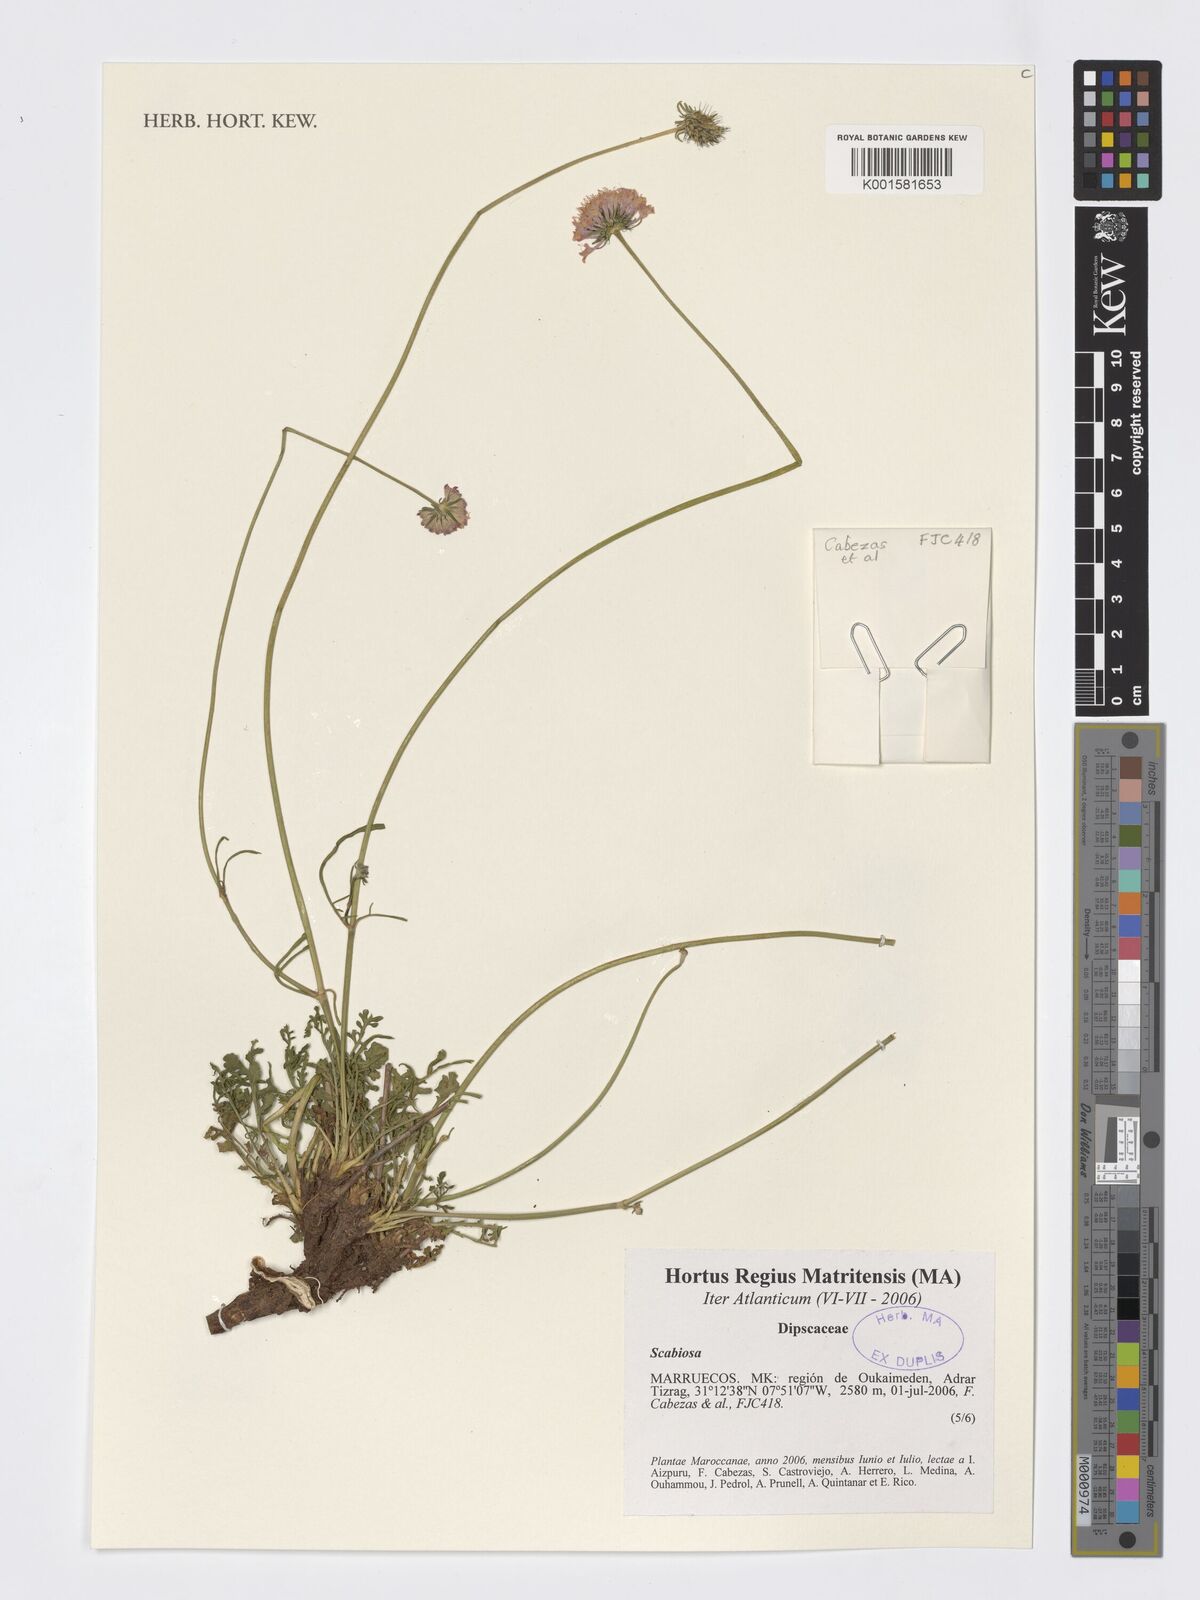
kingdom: Plantae
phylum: Tracheophyta
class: Magnoliopsida
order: Dipsacales
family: Caprifoliaceae
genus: Scabiosa
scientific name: Scabiosa
